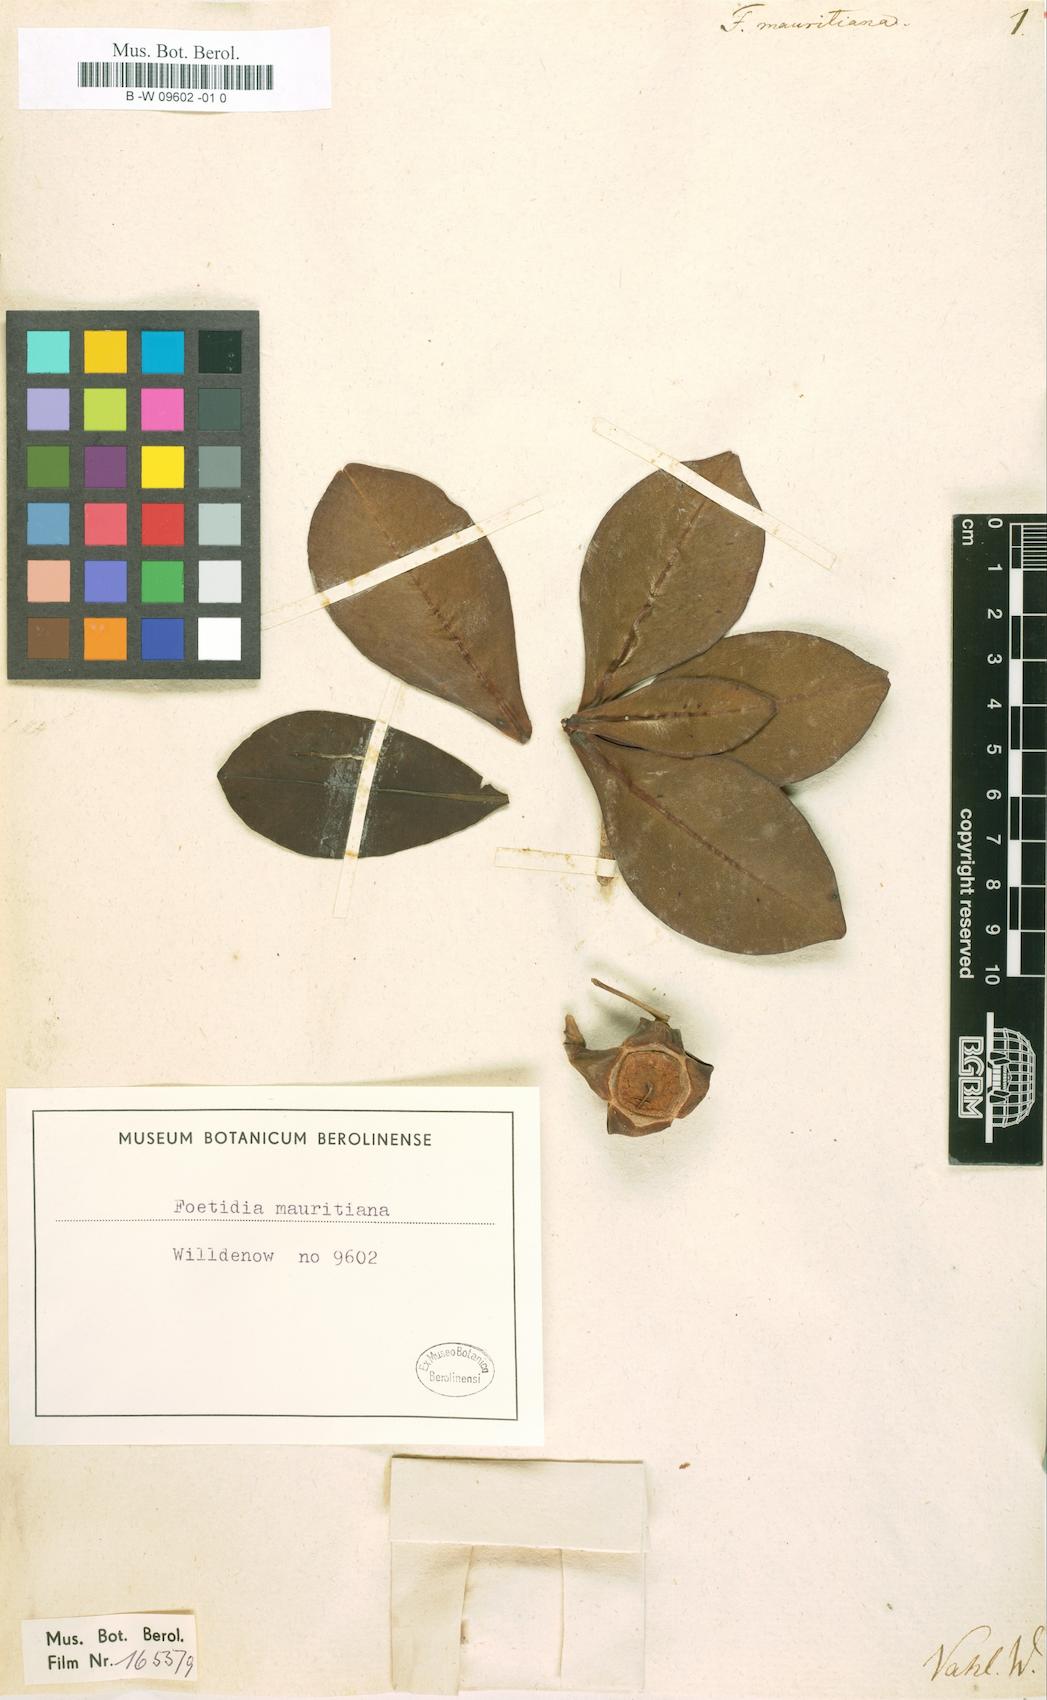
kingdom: Plantae
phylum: Tracheophyta
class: Magnoliopsida
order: Ericales
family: Lecythidaceae
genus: Foetidia
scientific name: Foetidia mauritiana
